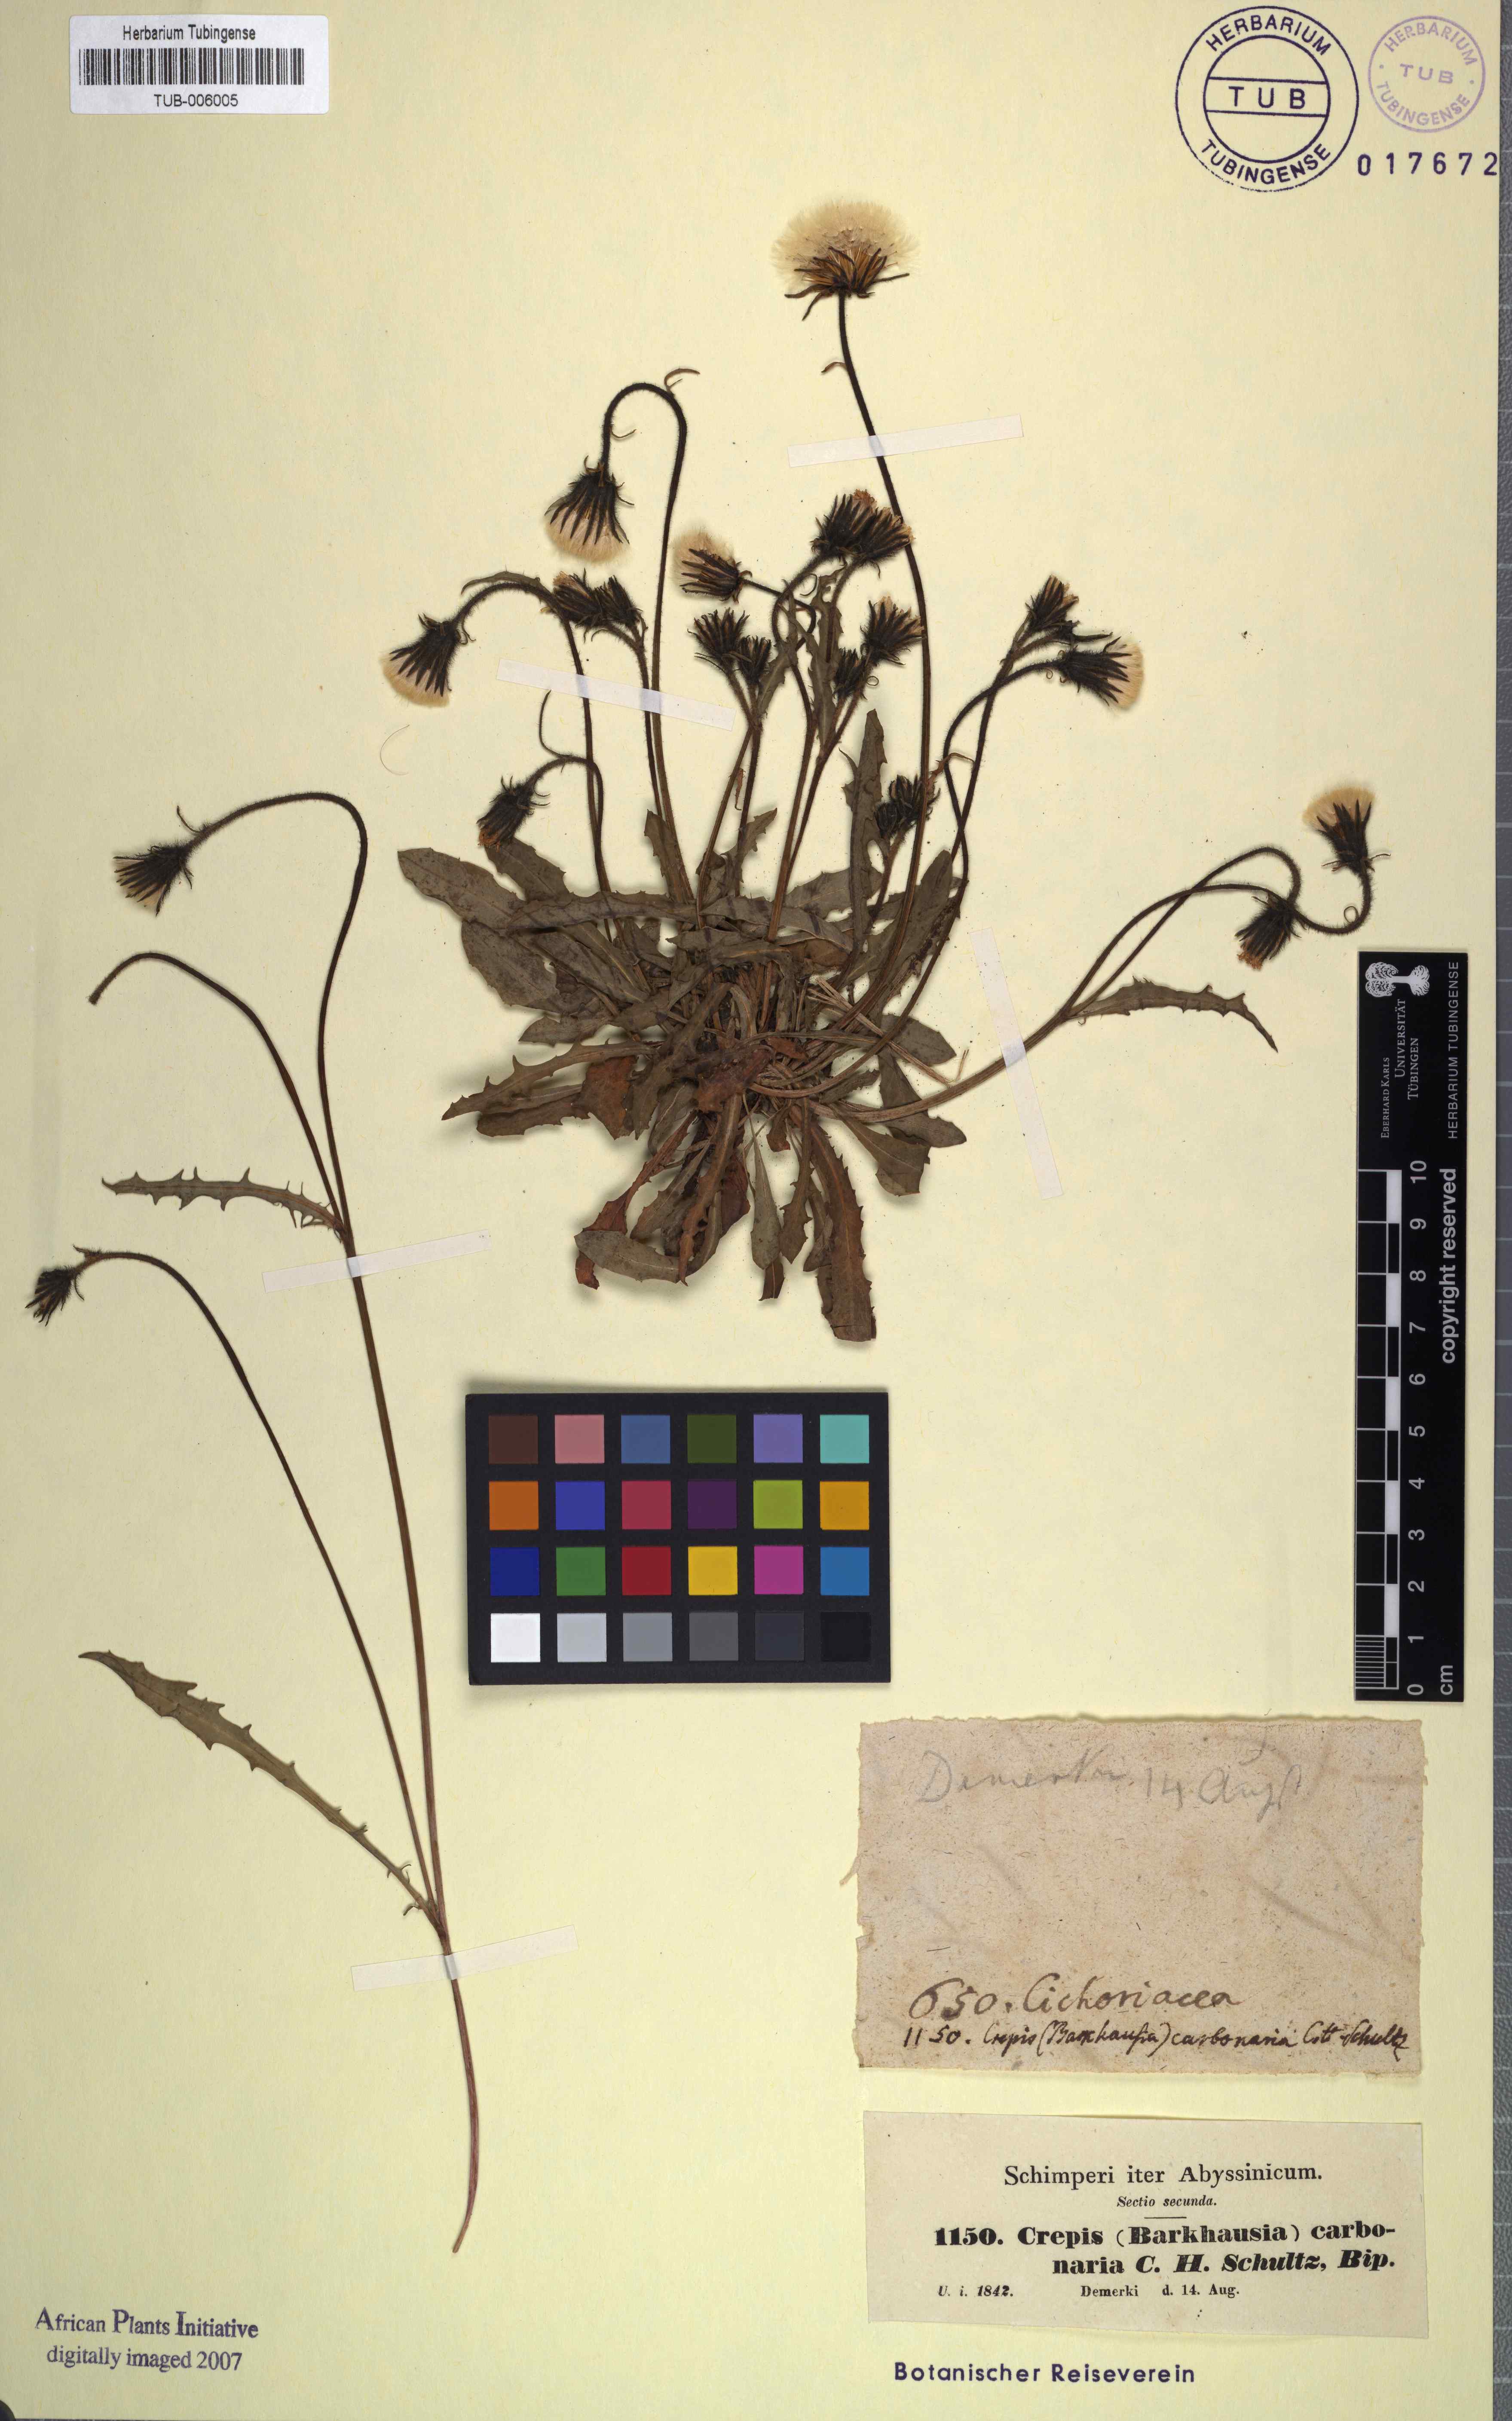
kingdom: Plantae
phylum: Tracheophyta
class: Magnoliopsida
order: Asterales
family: Asteraceae
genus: Crepis
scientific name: Crepis carbonaria
